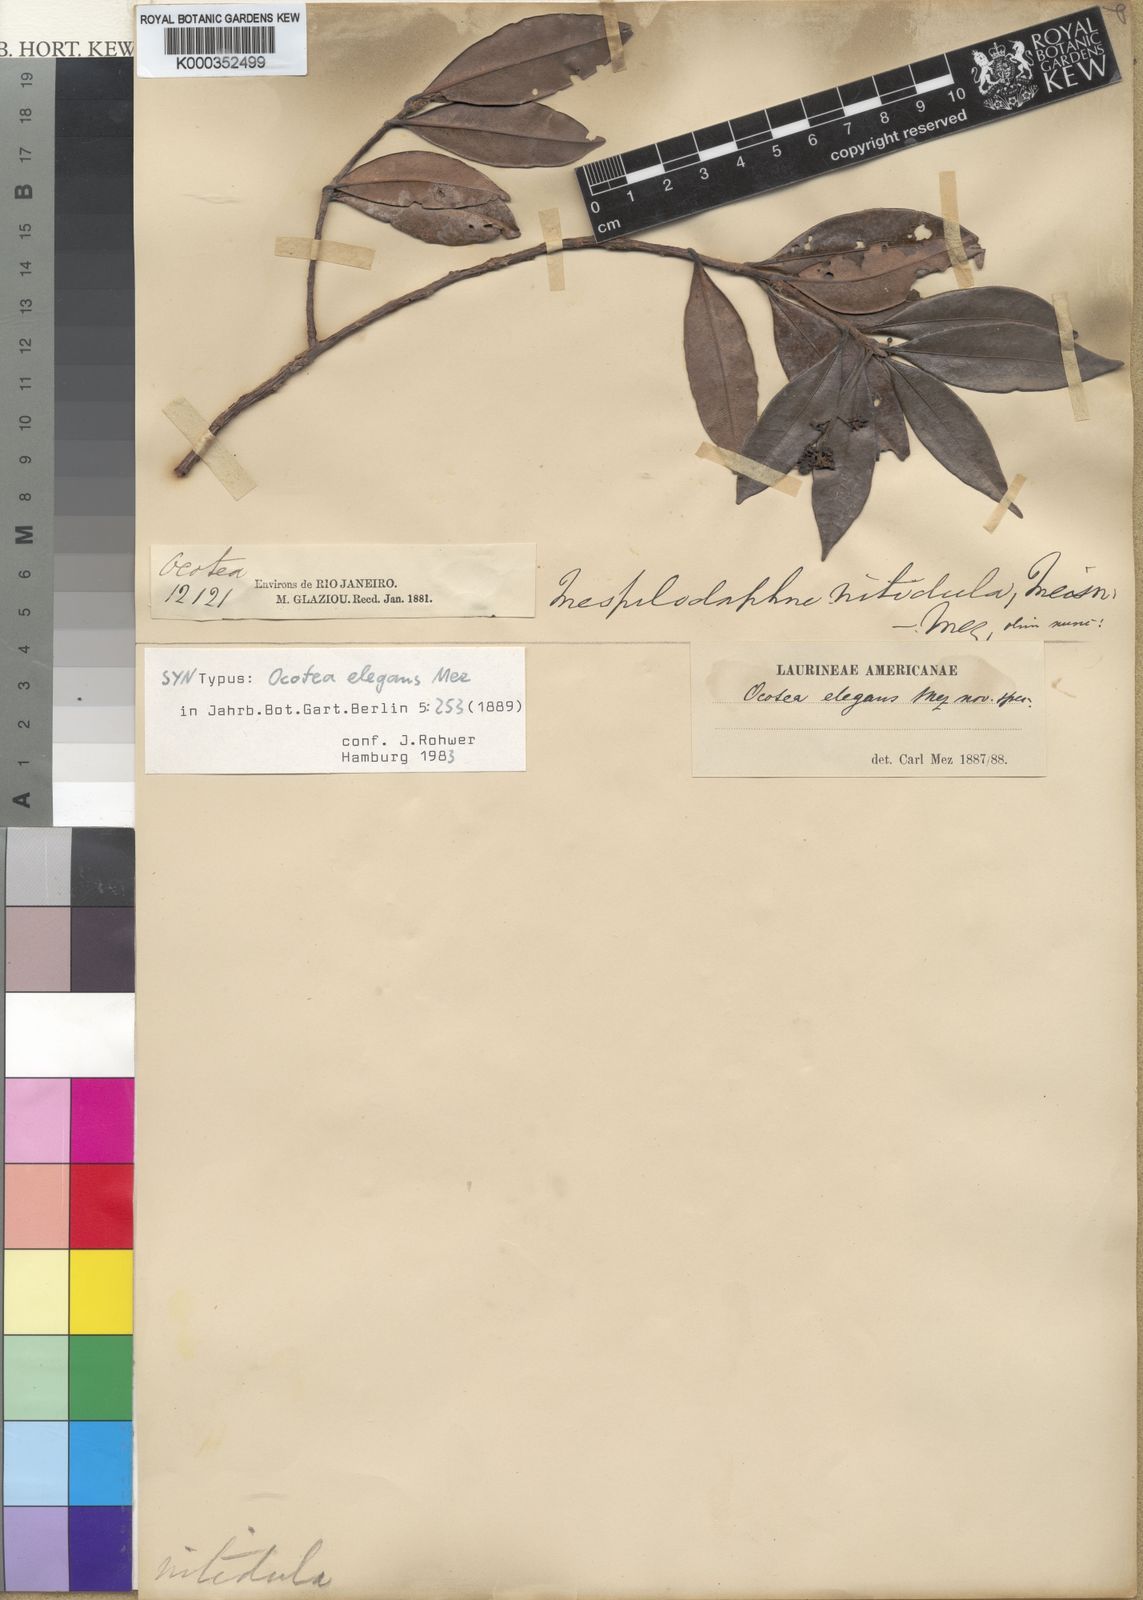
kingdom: Plantae
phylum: Tracheophyta
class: Magnoliopsida
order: Laurales
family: Lauraceae
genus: Ocotea
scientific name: Ocotea colophanthera
